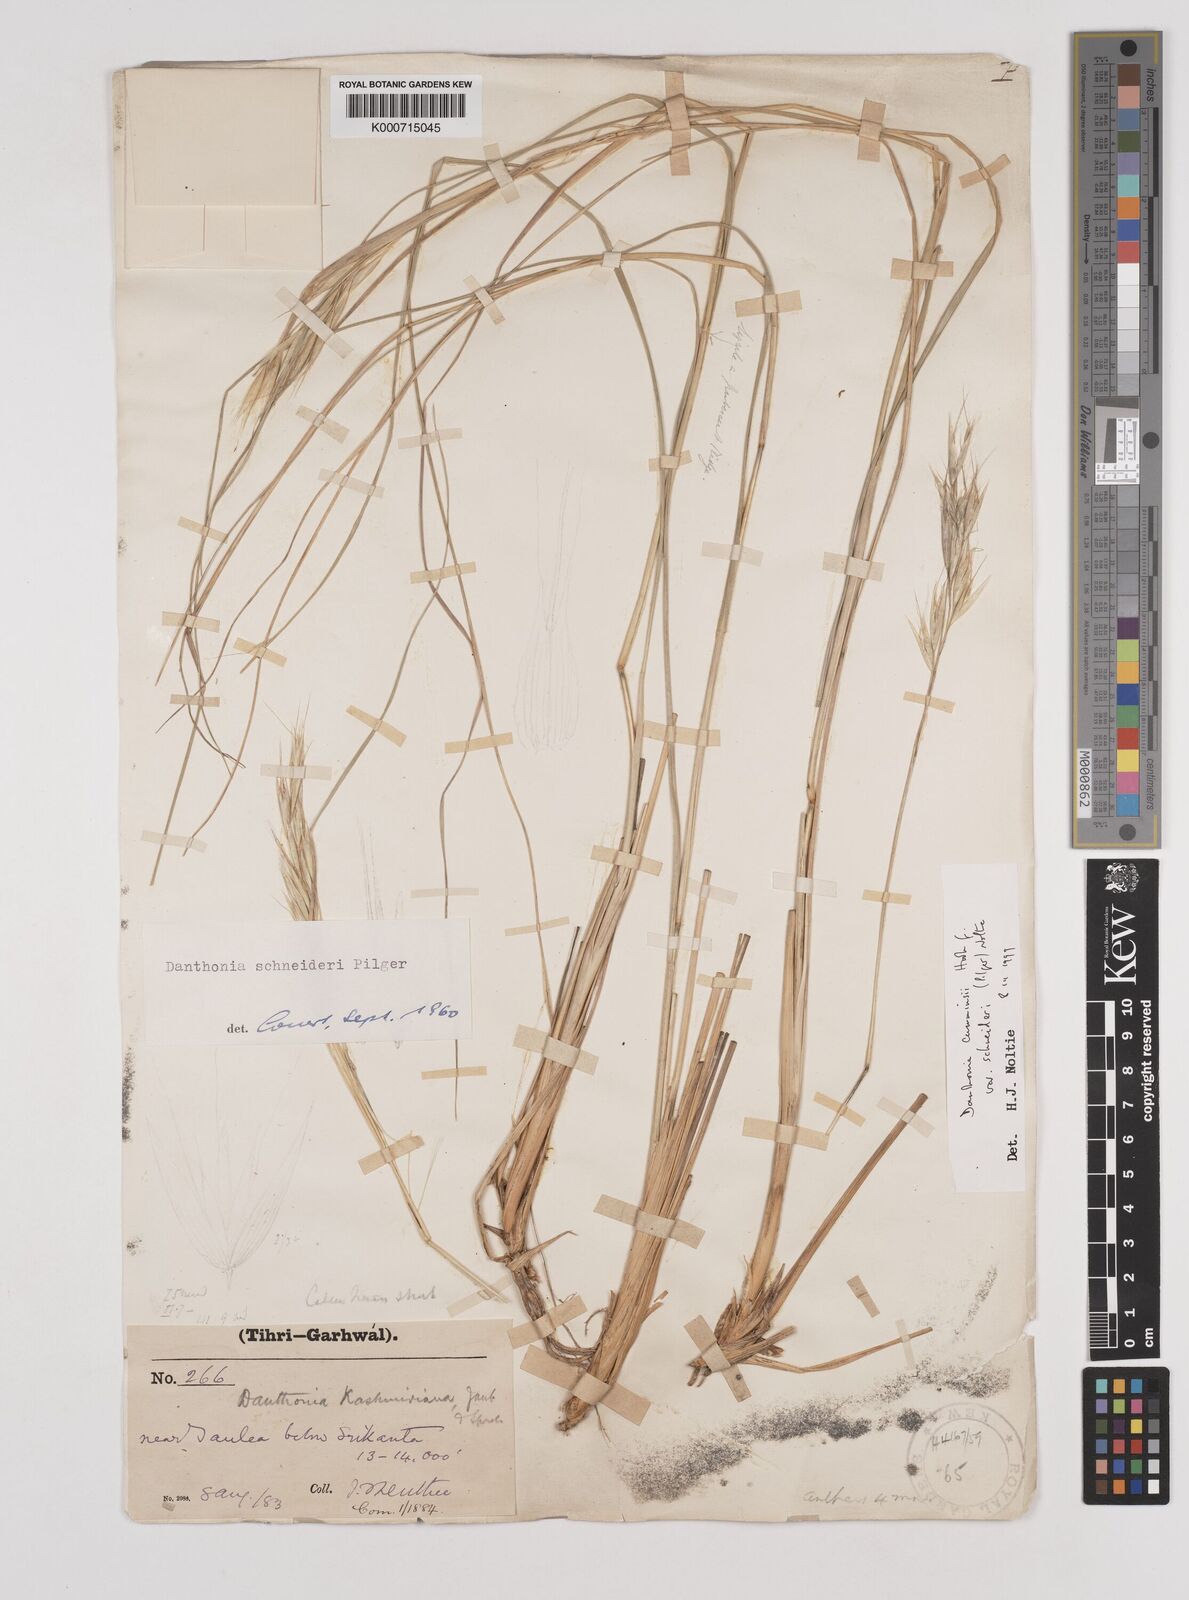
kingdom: Plantae
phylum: Tracheophyta
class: Liliopsida
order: Poales
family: Poaceae
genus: Rytidosperma
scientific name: Rytidosperma
